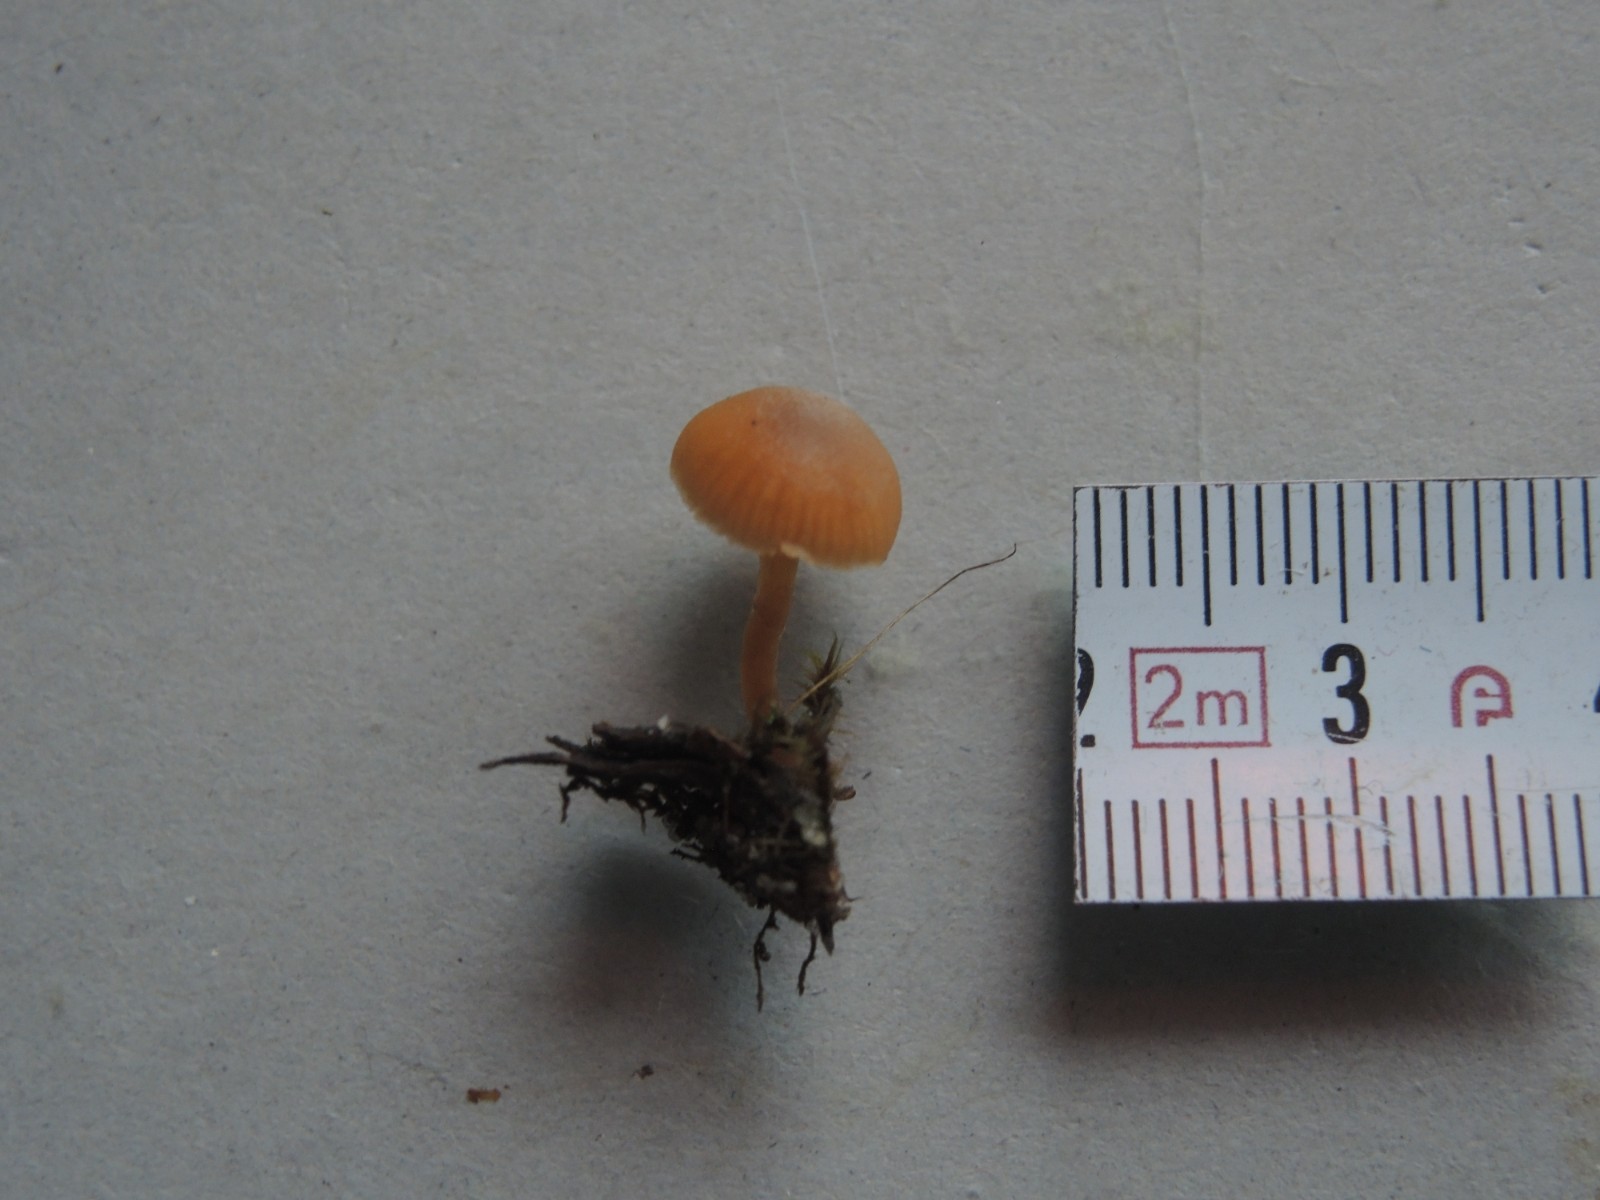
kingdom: Fungi
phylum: Basidiomycota
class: Agaricomycetes
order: Agaricales
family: Hymenogastraceae
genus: Galerina
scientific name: Galerina marginata
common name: randbæltet hjelmhat
